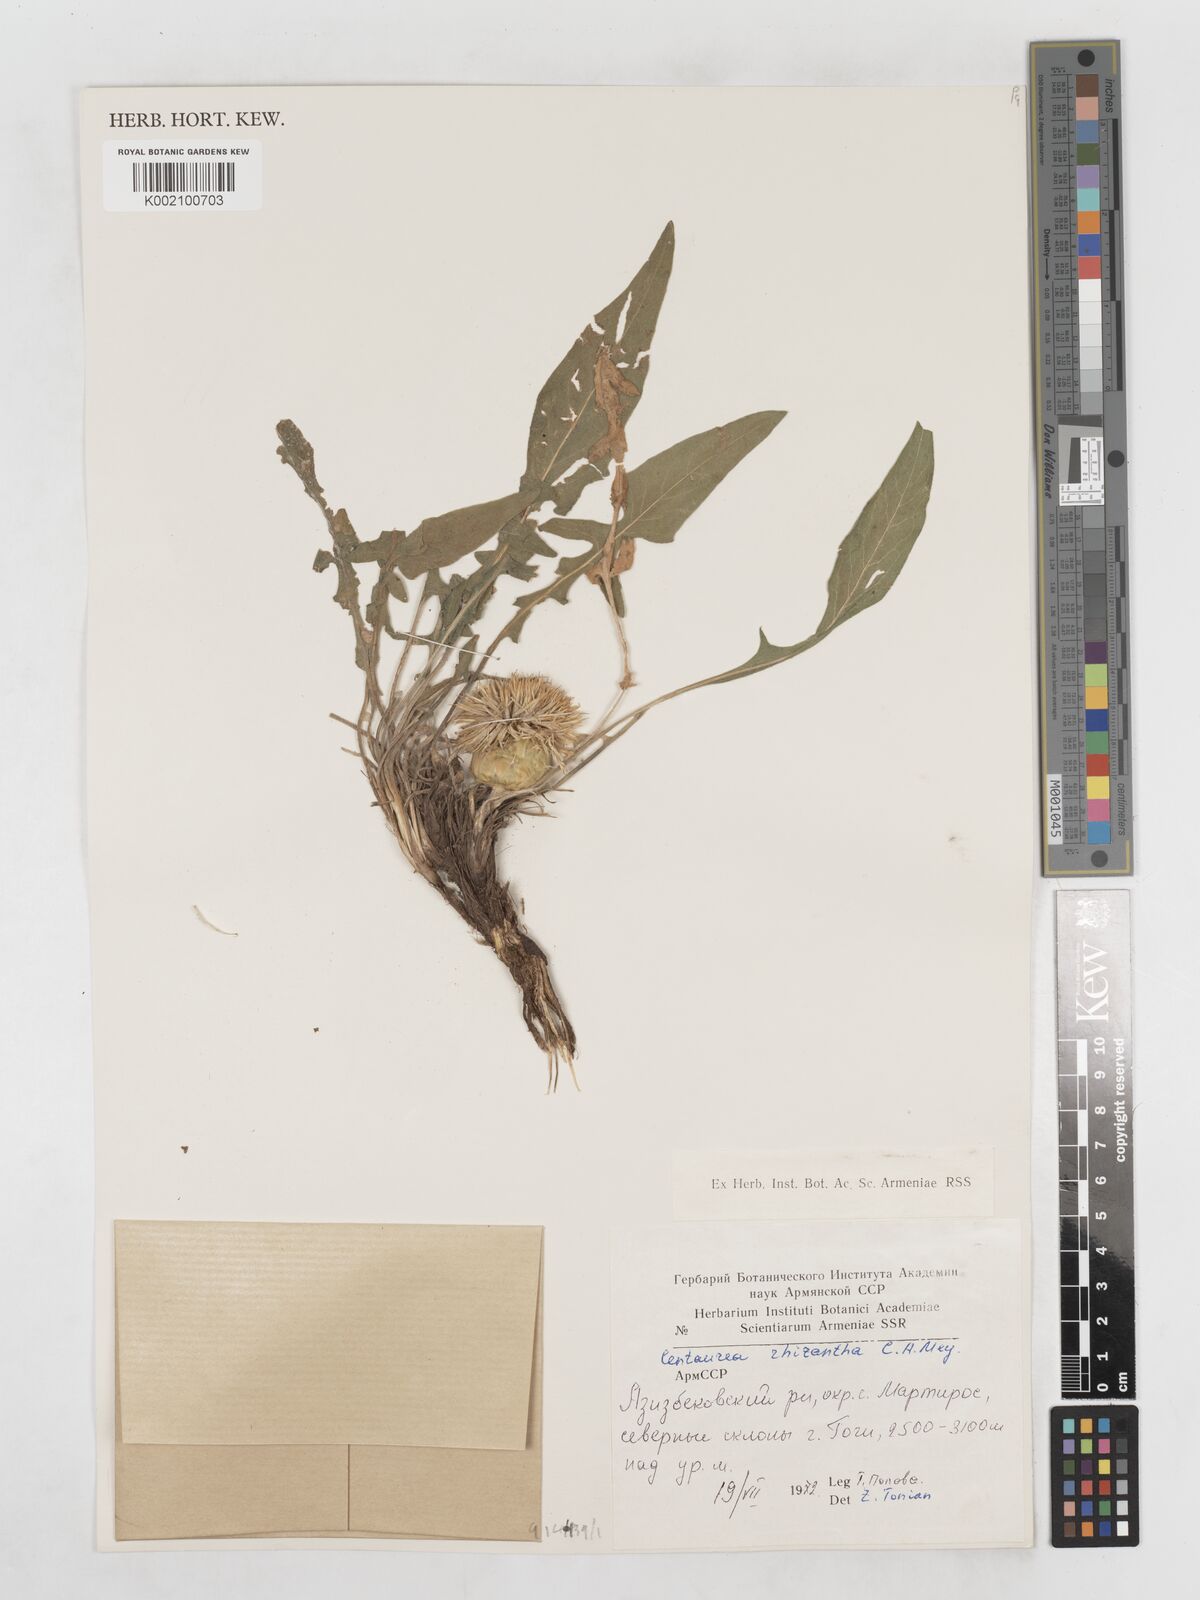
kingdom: Plantae
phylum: Tracheophyta
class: Magnoliopsida
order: Asterales
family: Asteraceae
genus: Centaurea
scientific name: Centaurea rhizantha
